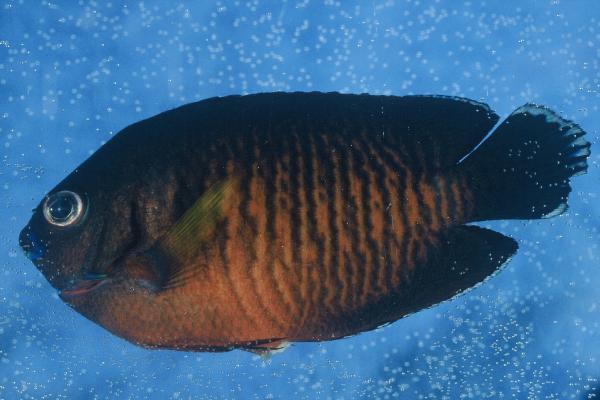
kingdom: Animalia
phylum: Chordata
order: Perciformes
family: Pomacanthidae
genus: Centropyge
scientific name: Centropyge bispinosa
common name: Coral beauty
